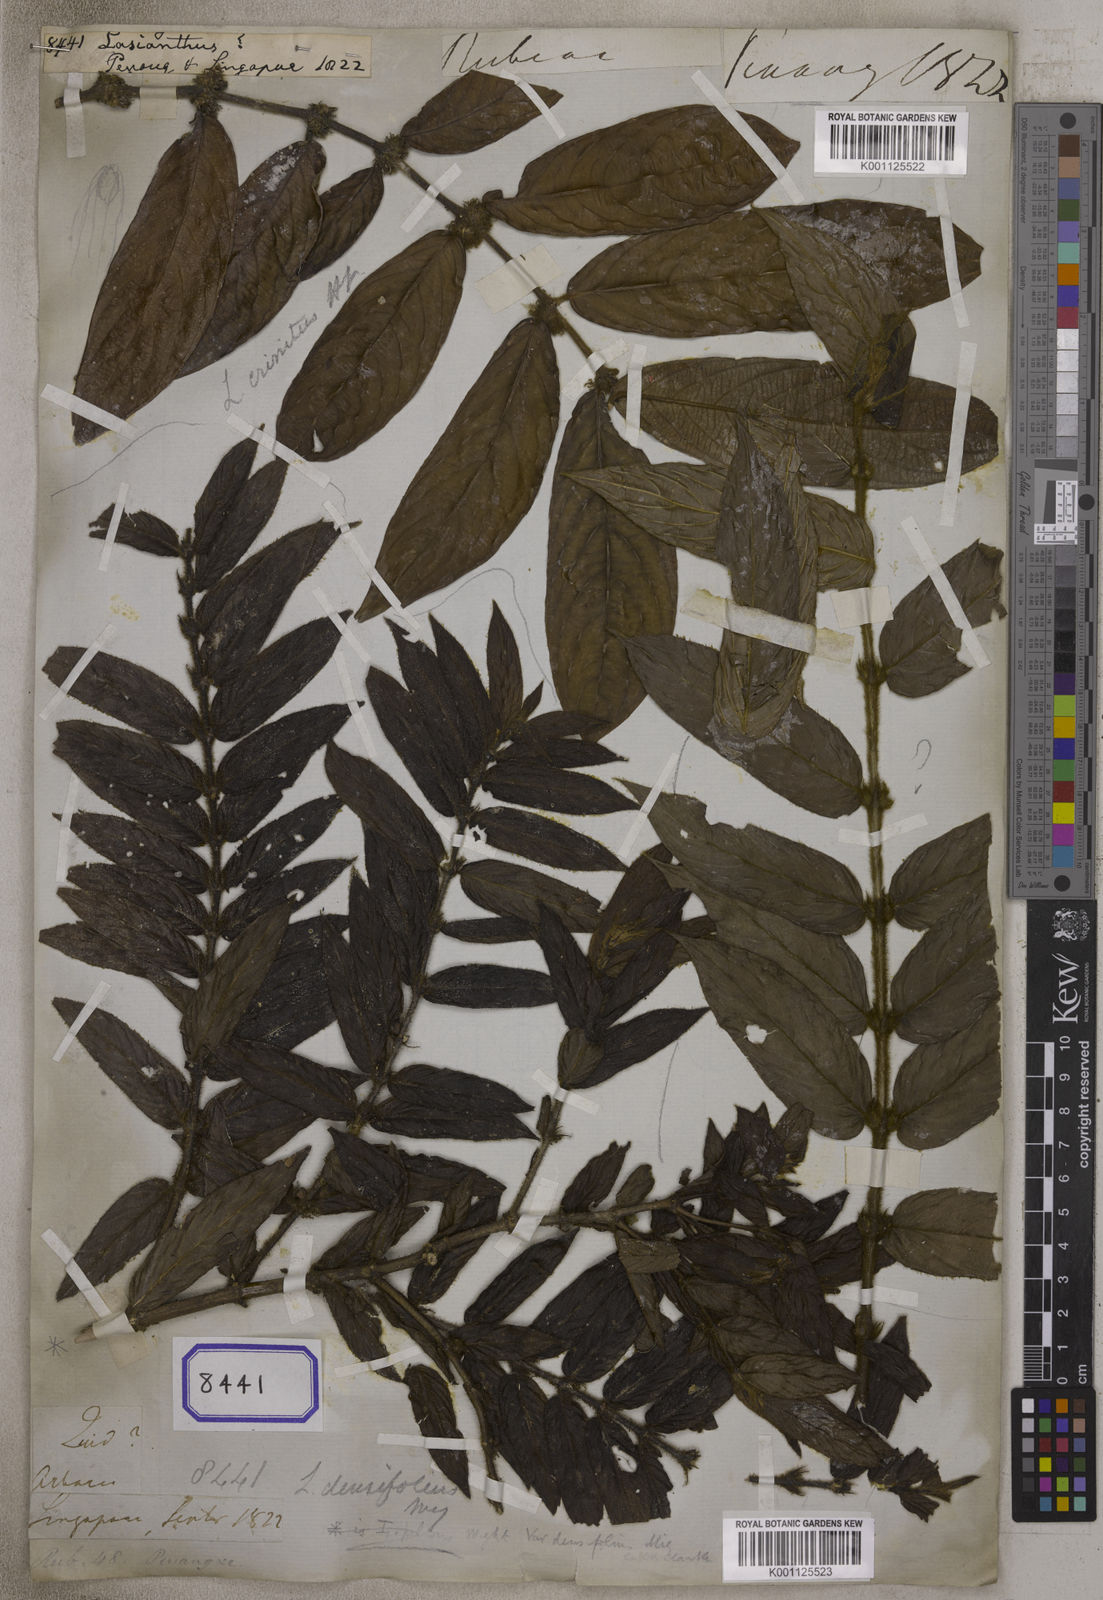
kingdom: Plantae
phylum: Tracheophyta
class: Magnoliopsida
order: Gentianales
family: Rubiaceae
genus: Lasianthus
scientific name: Lasianthus
